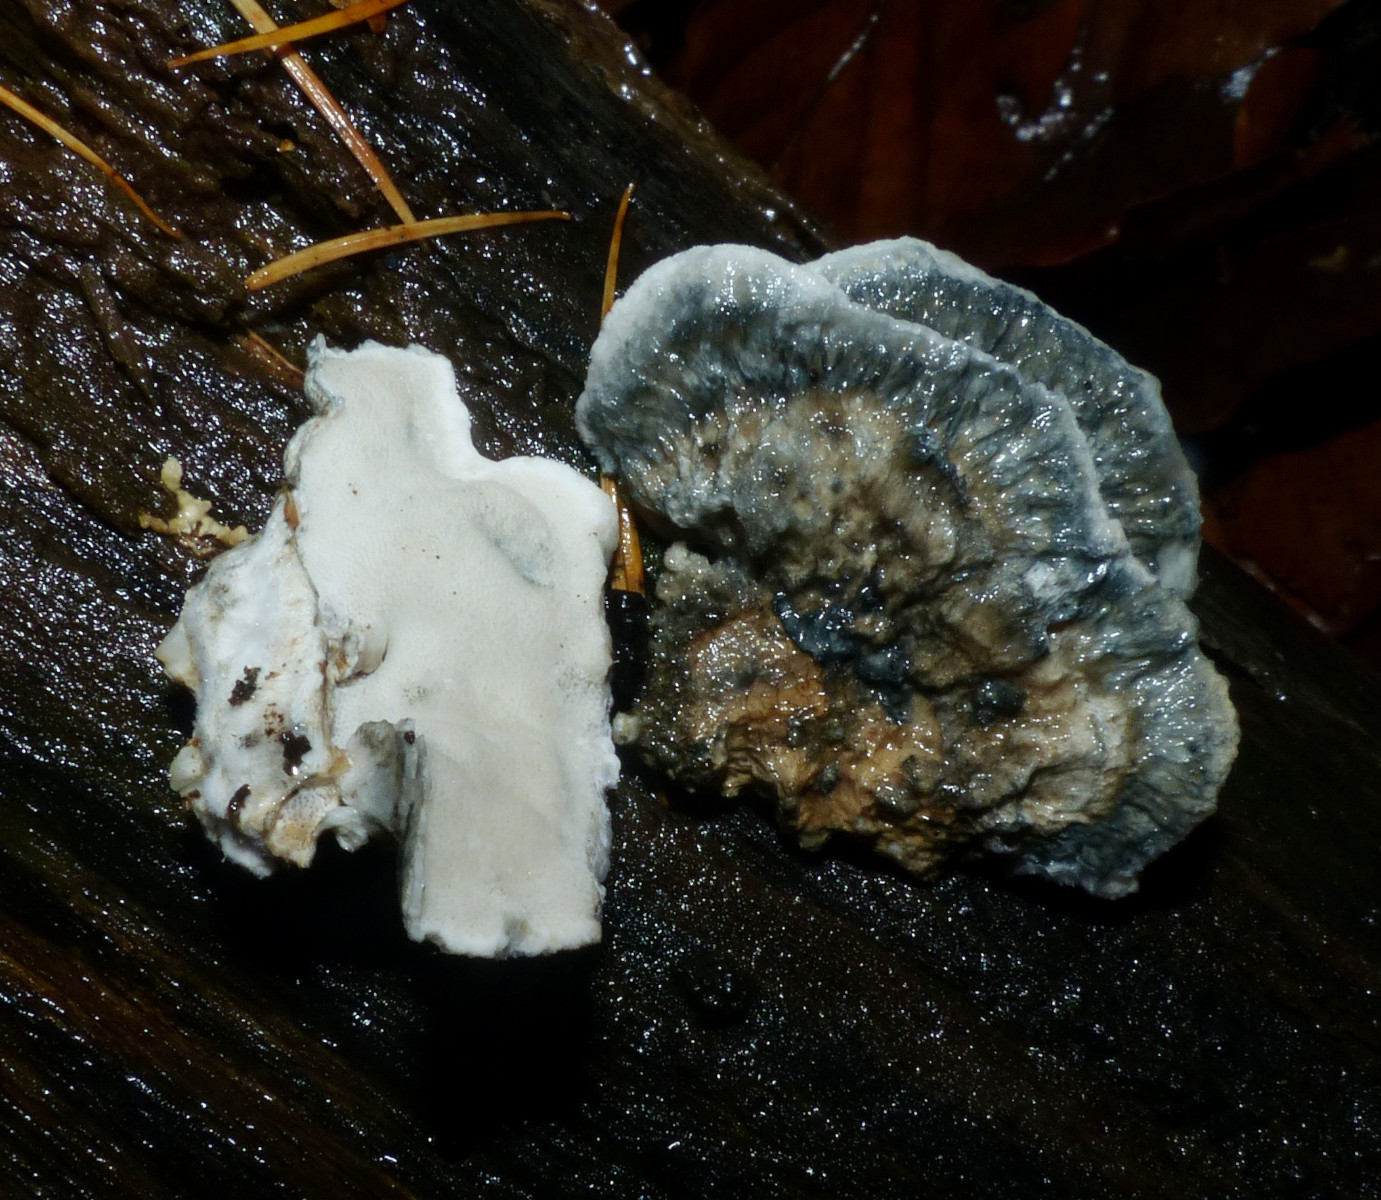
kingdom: Fungi
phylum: Basidiomycota
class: Agaricomycetes
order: Polyporales
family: Polyporaceae
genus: Cyanosporus
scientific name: Cyanosporus alni
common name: blegblå kødporesvamp
